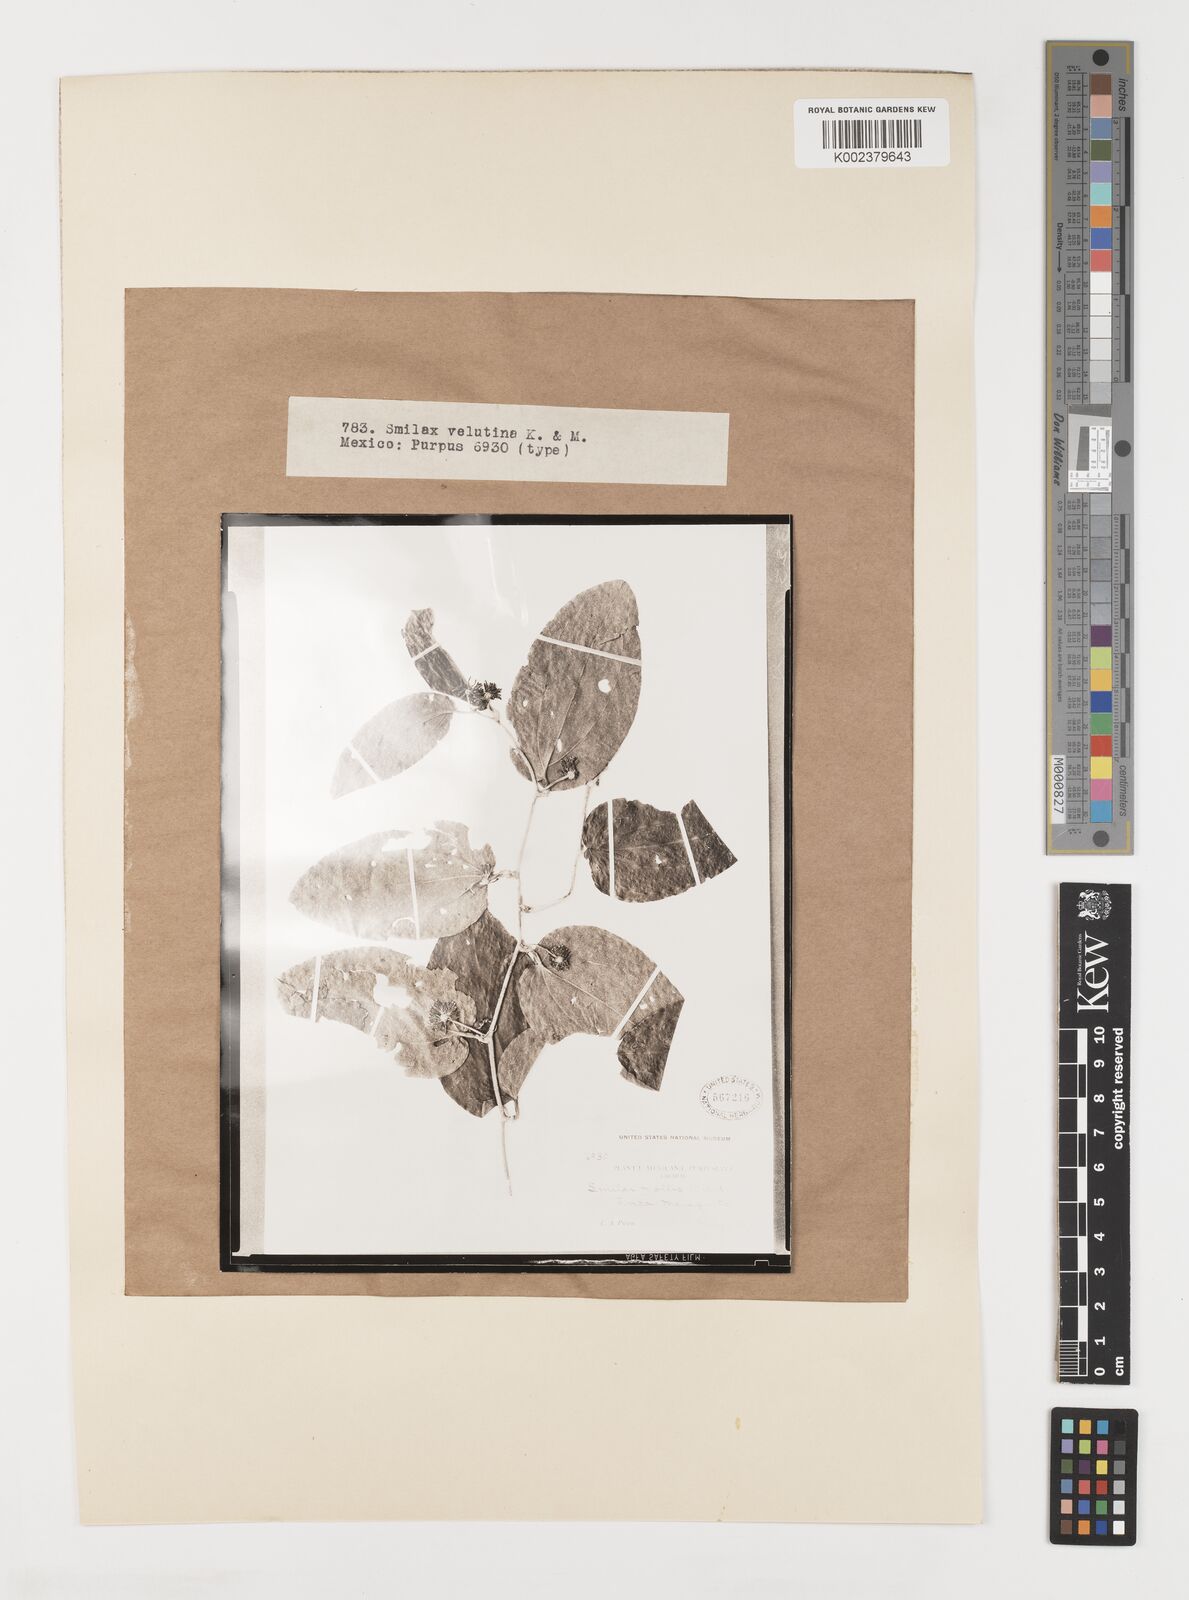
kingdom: Plantae
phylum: Tracheophyta
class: Liliopsida
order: Liliales
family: Smilacaceae
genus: Smilax
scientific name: Smilax velutina
